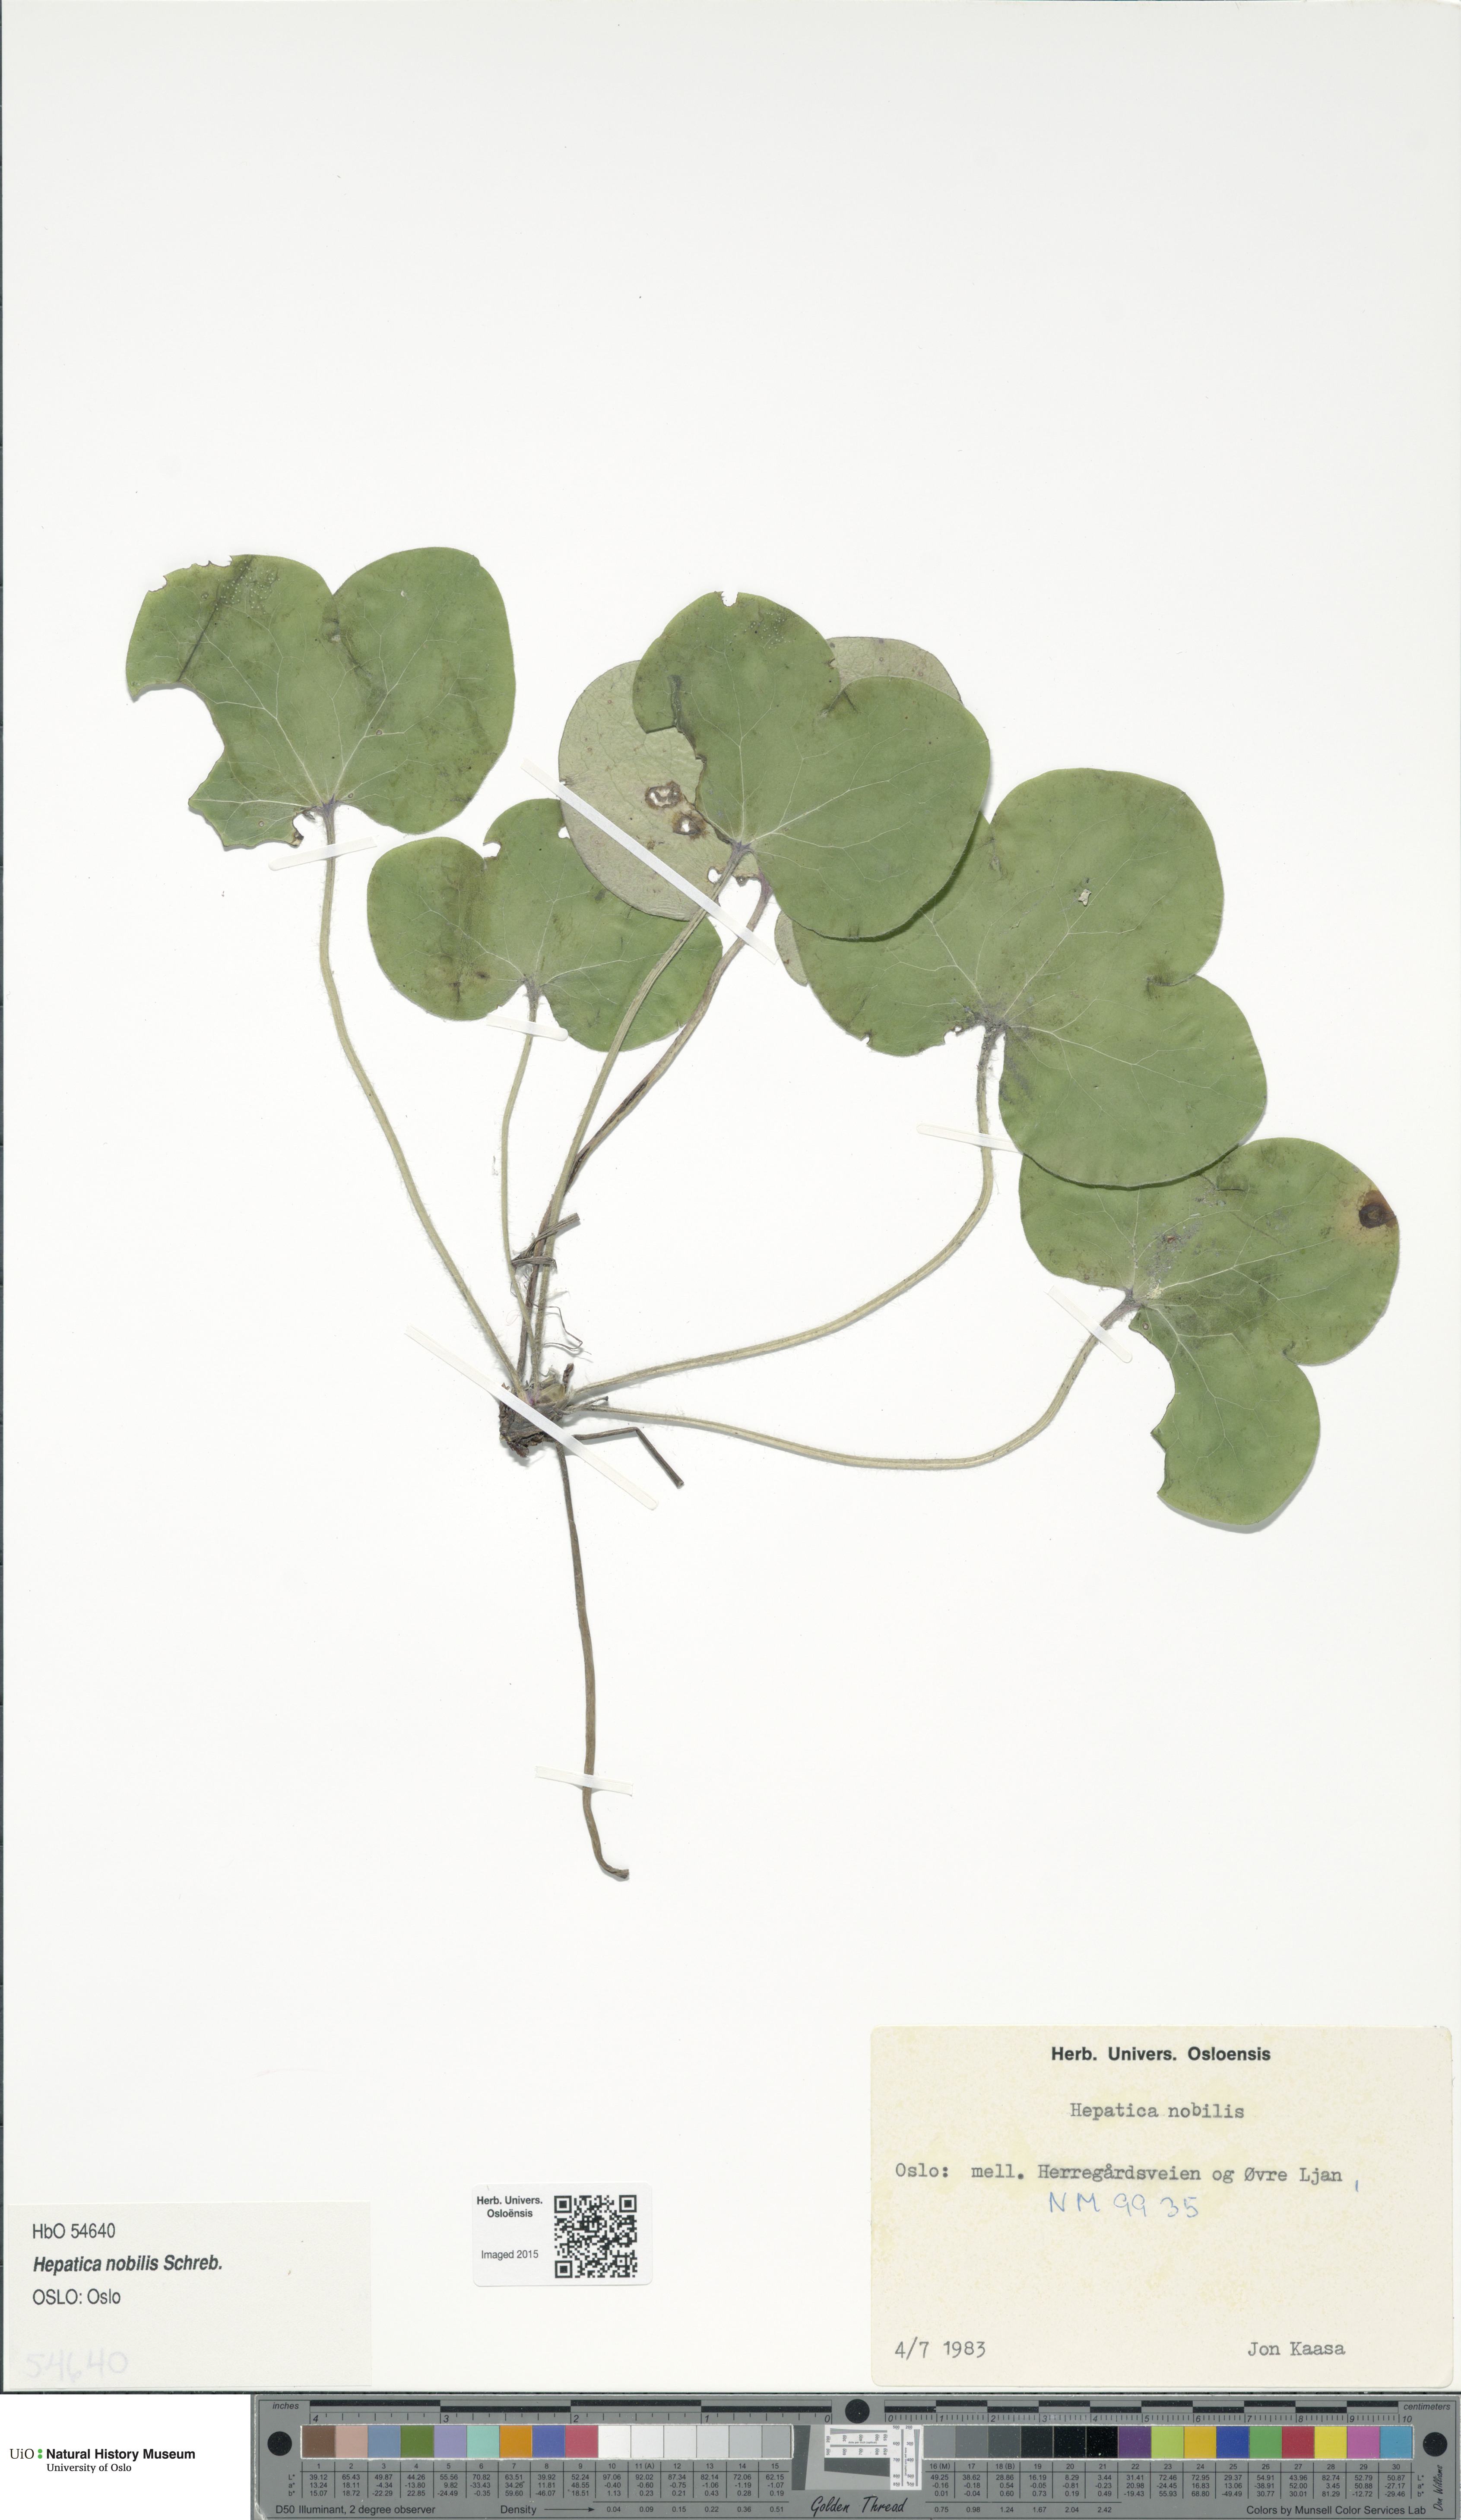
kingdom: Plantae
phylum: Tracheophyta
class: Magnoliopsida
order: Ranunculales
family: Ranunculaceae
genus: Hepatica
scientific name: Hepatica nobilis
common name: Liverleaf
